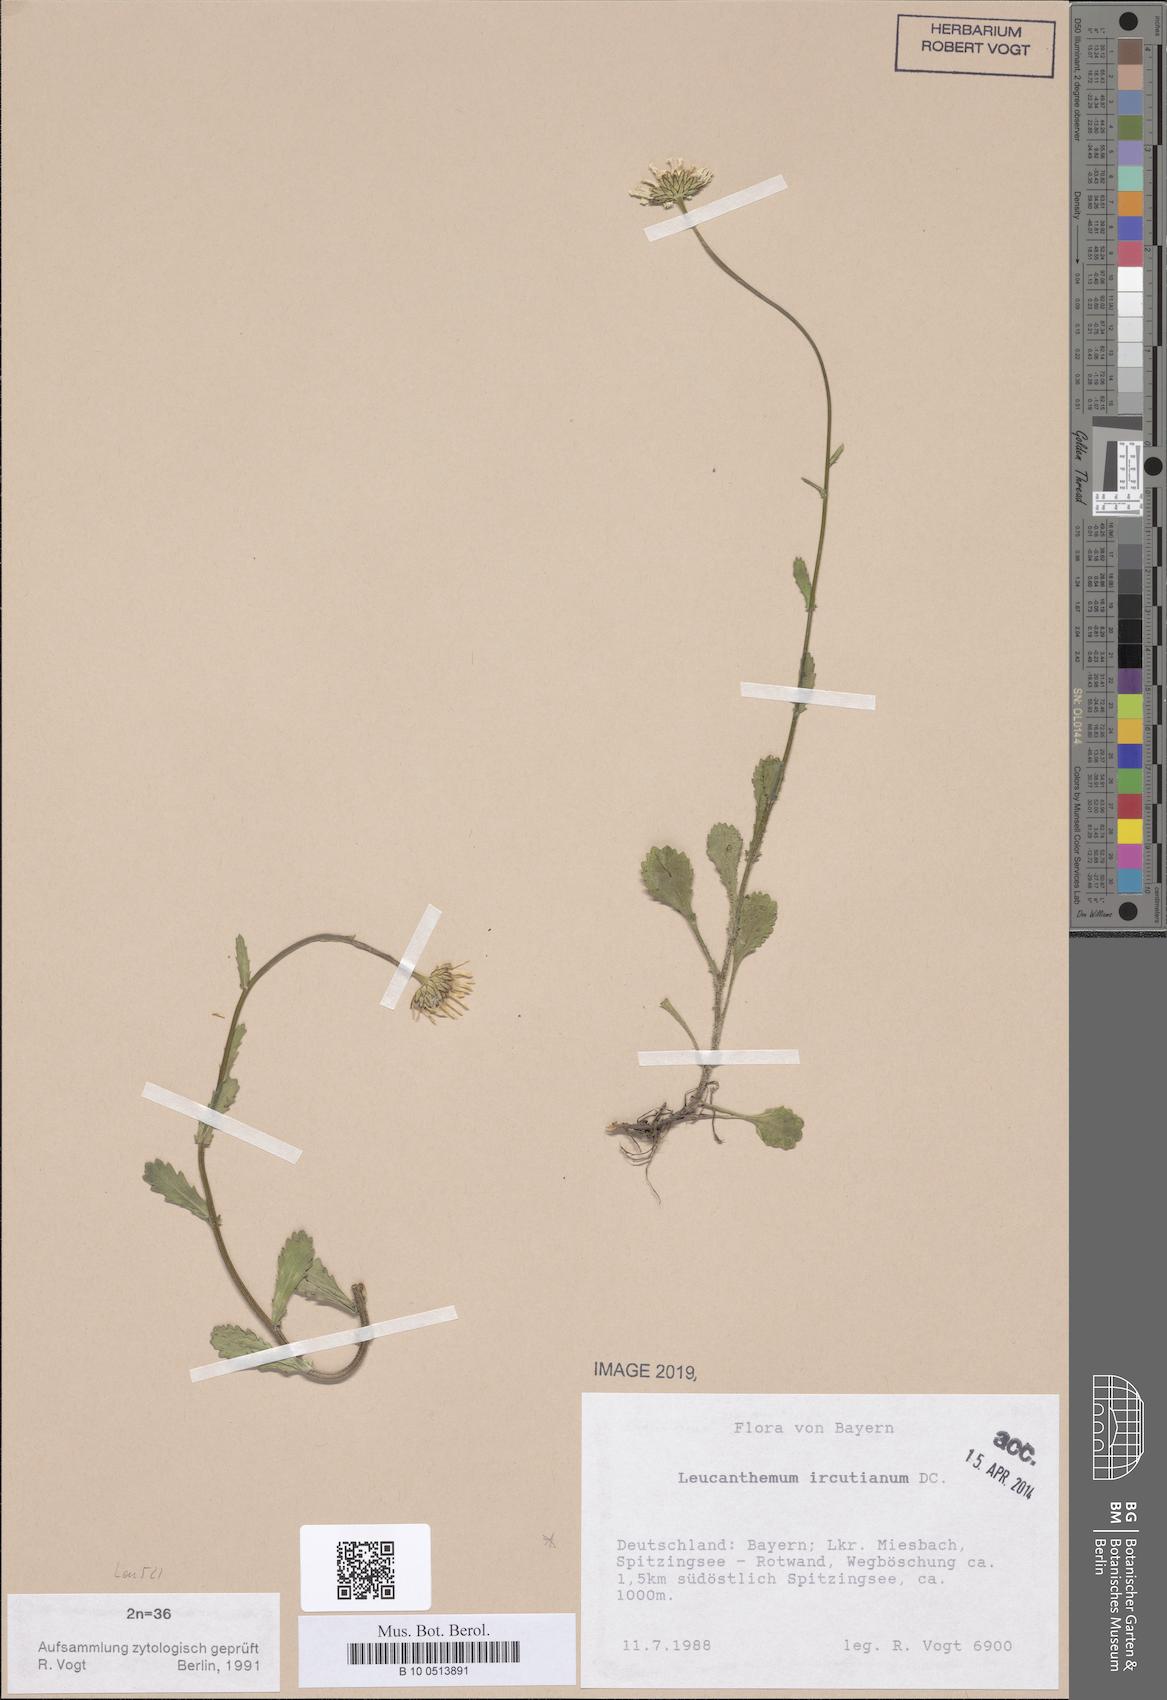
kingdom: Plantae
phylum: Tracheophyta
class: Magnoliopsida
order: Asterales
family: Asteraceae
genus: Leucanthemum
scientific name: Leucanthemum ircutianum
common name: Daisy
